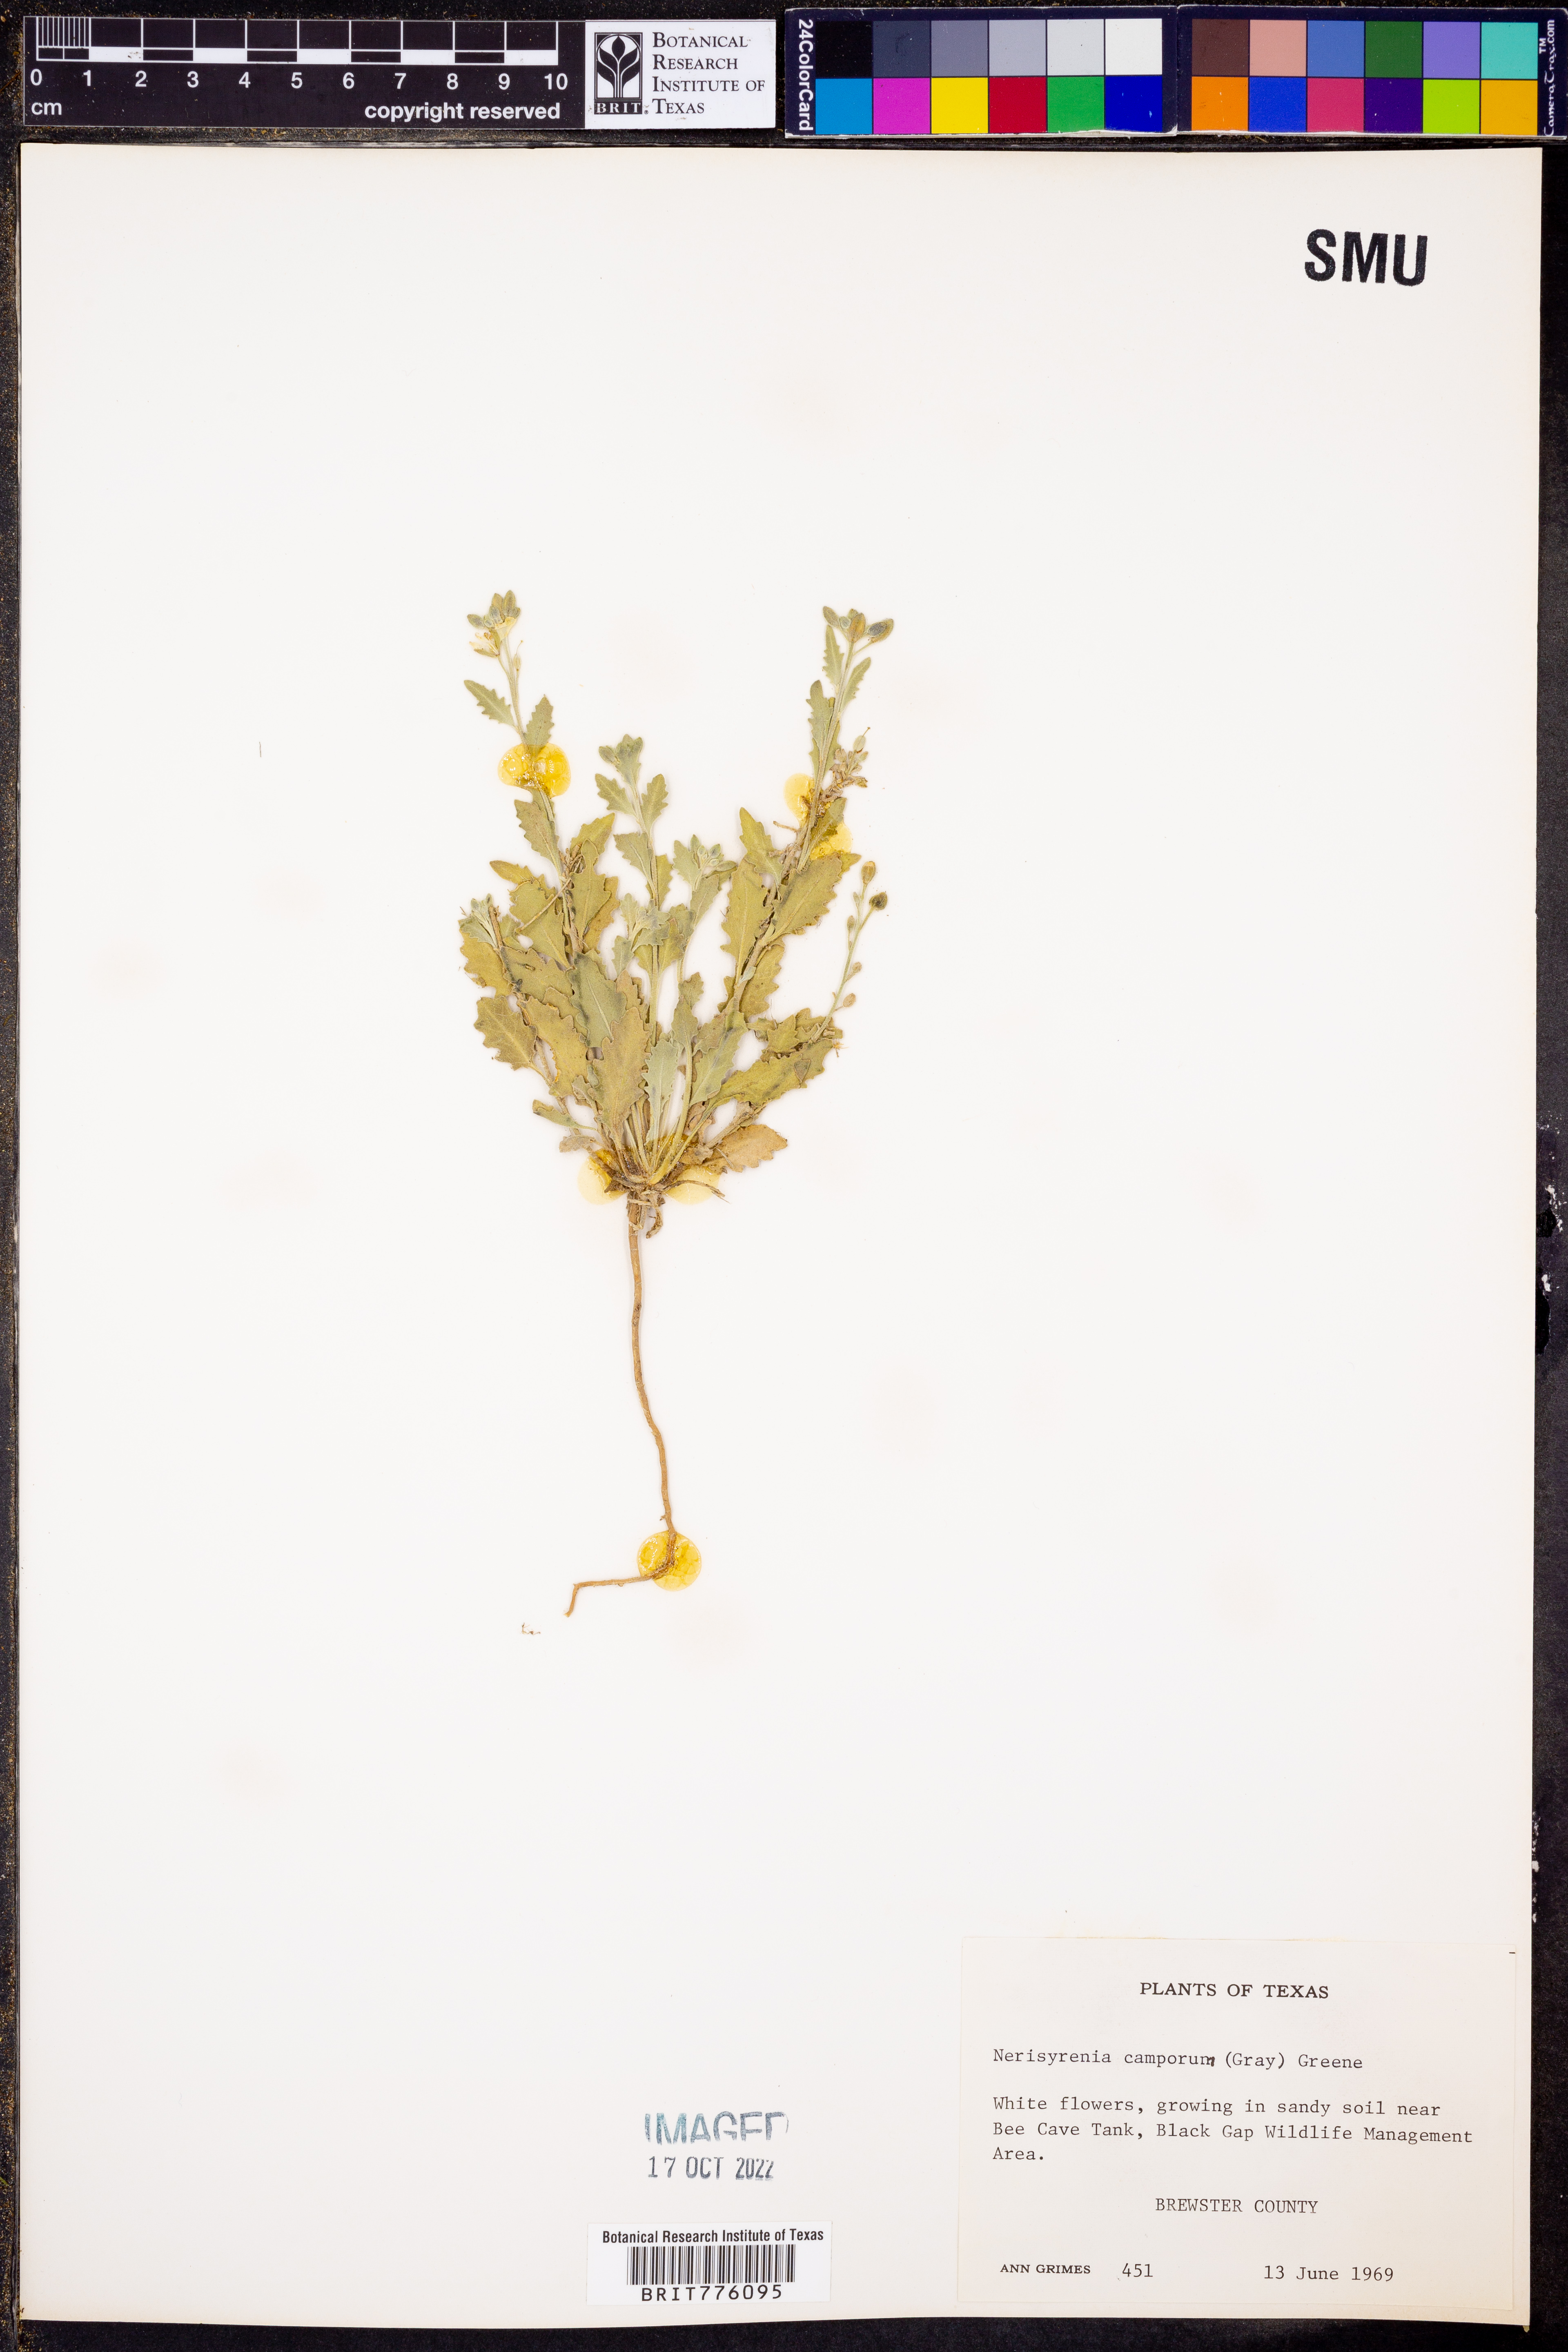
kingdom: Plantae
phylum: Tracheophyta
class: Magnoliopsida
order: Brassicales
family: Brassicaceae
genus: Nerisyrenia
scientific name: Nerisyrenia camporum
